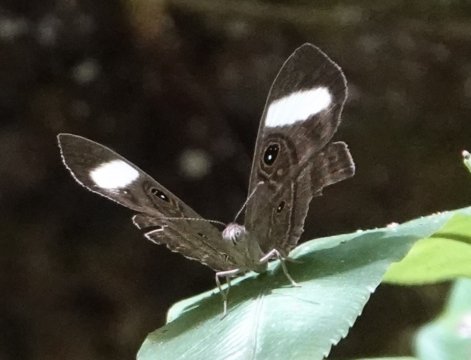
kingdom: Animalia
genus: Mesosemia
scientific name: Mesosemia asa
